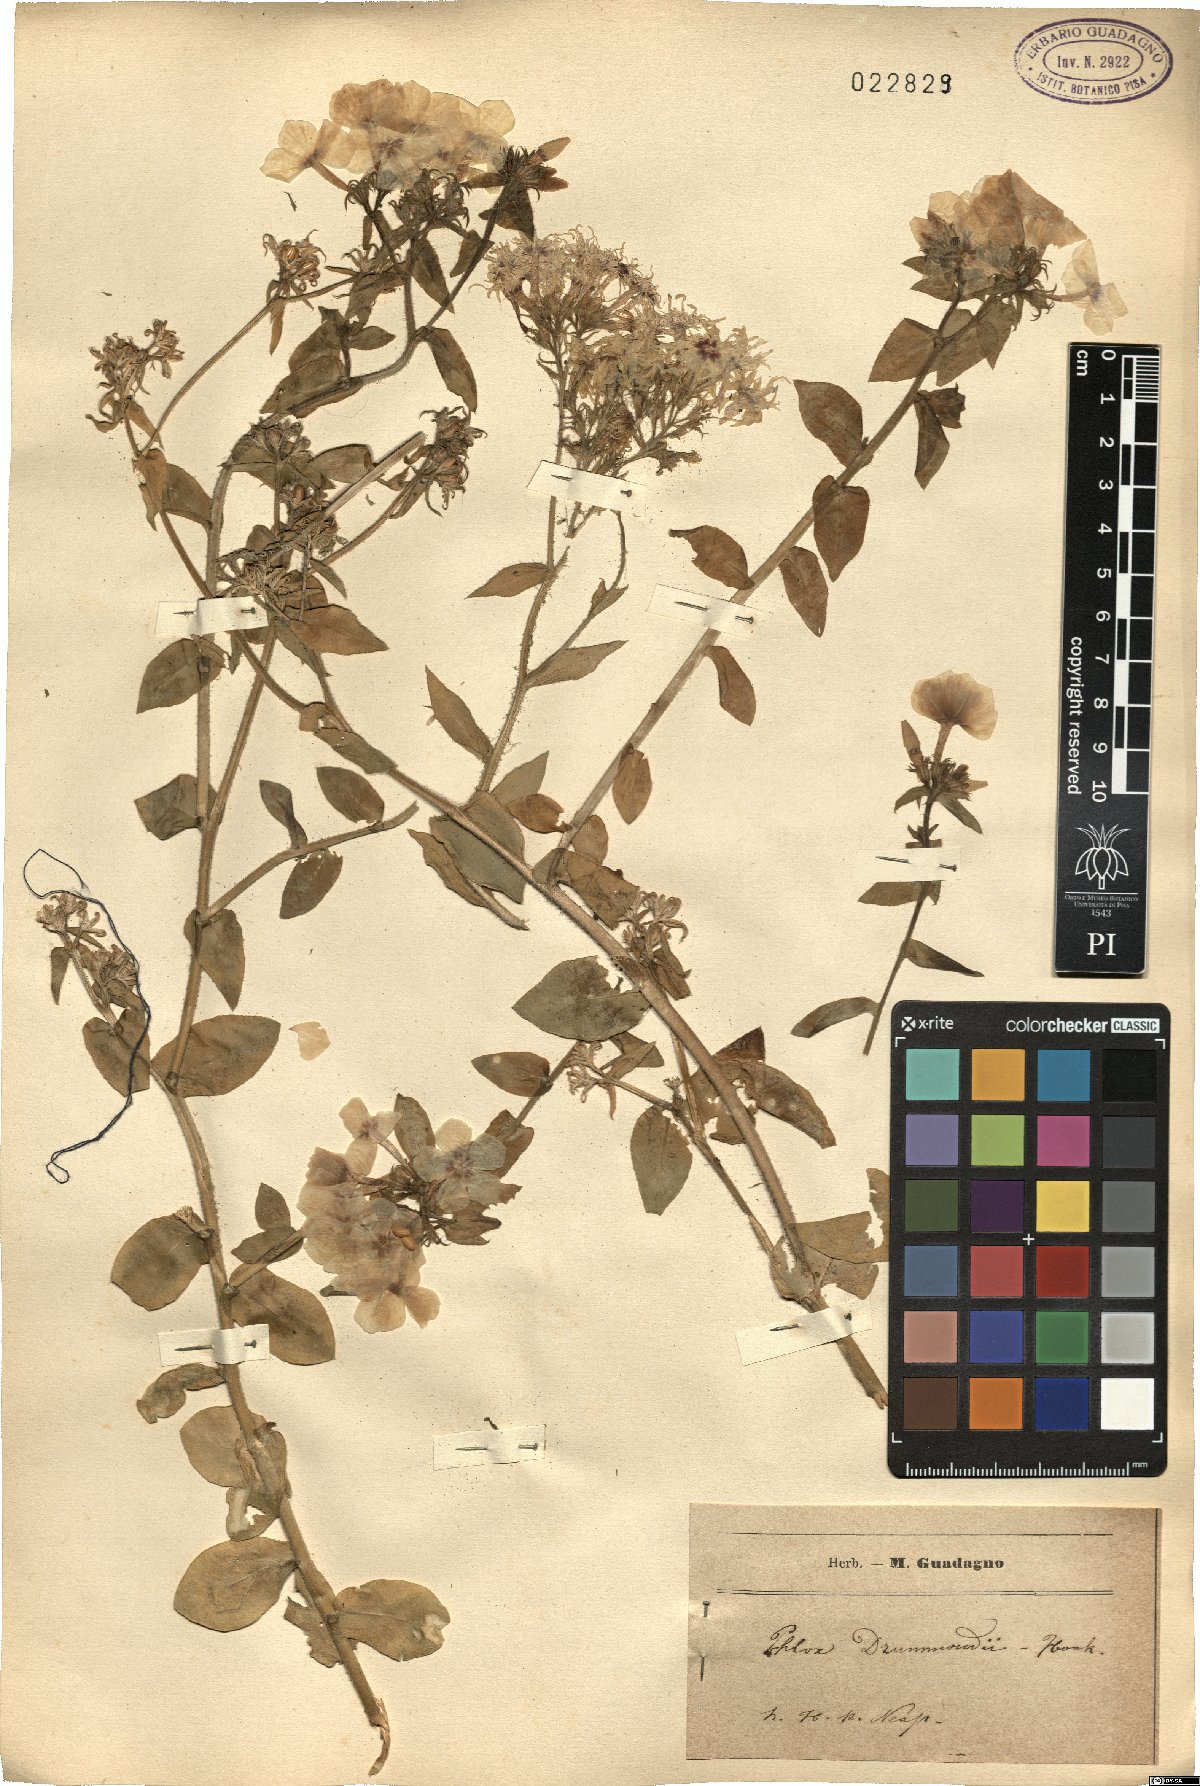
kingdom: Plantae
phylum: Tracheophyta
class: Magnoliopsida
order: Ericales
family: Polemoniaceae
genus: Phlox
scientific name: Phlox drummondii
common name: Drummond's phlox
